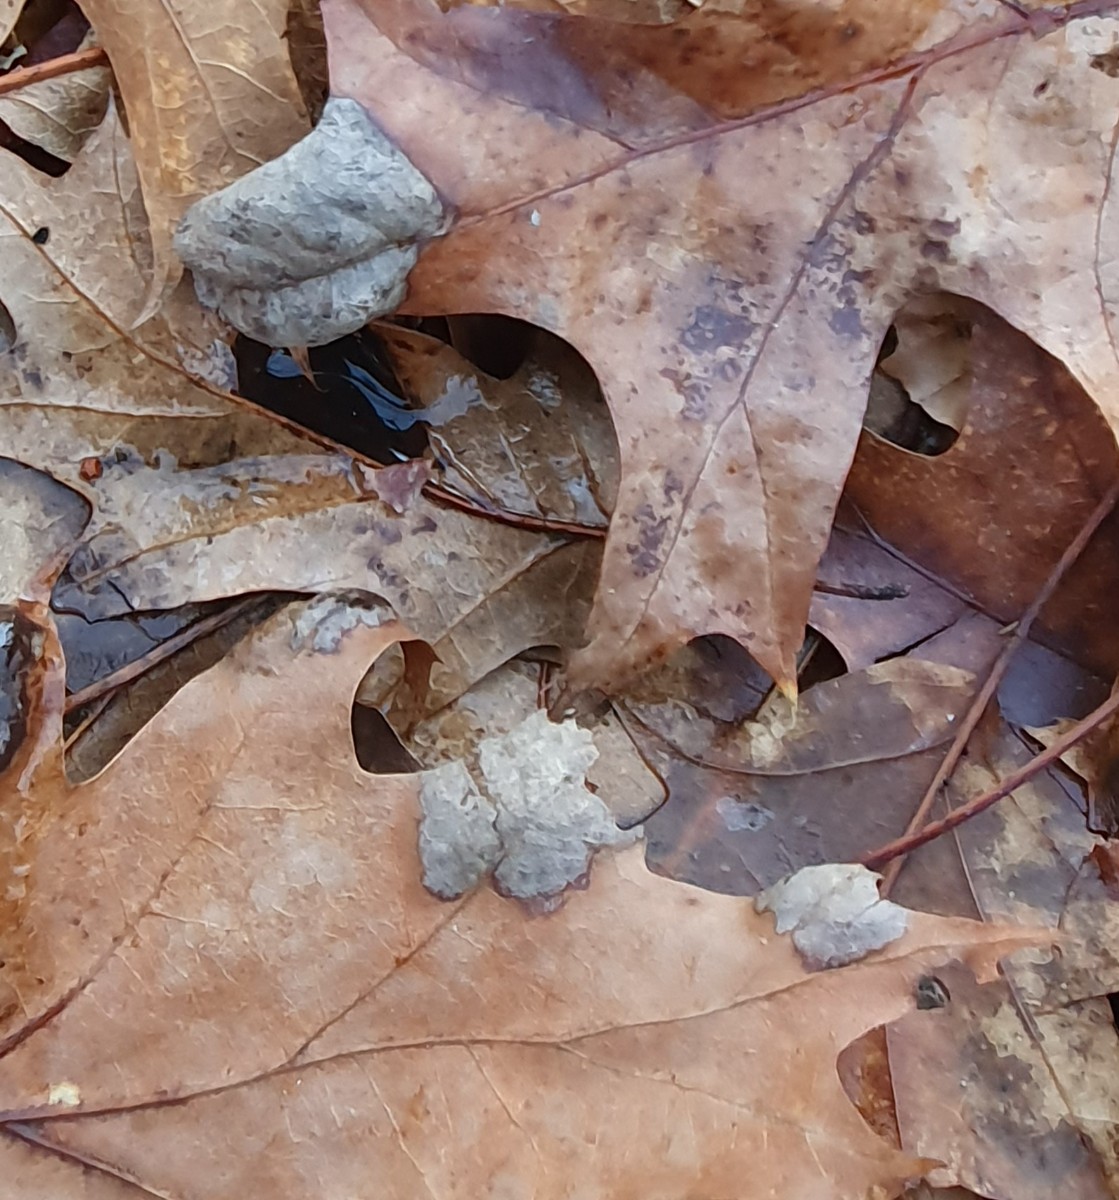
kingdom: Fungi
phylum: Ascomycota
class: Taphrinomycetes
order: Taphrinales
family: Taphrinaceae
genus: Taphrina
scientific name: Taphrina caerulescens
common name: Oak leaf blister
